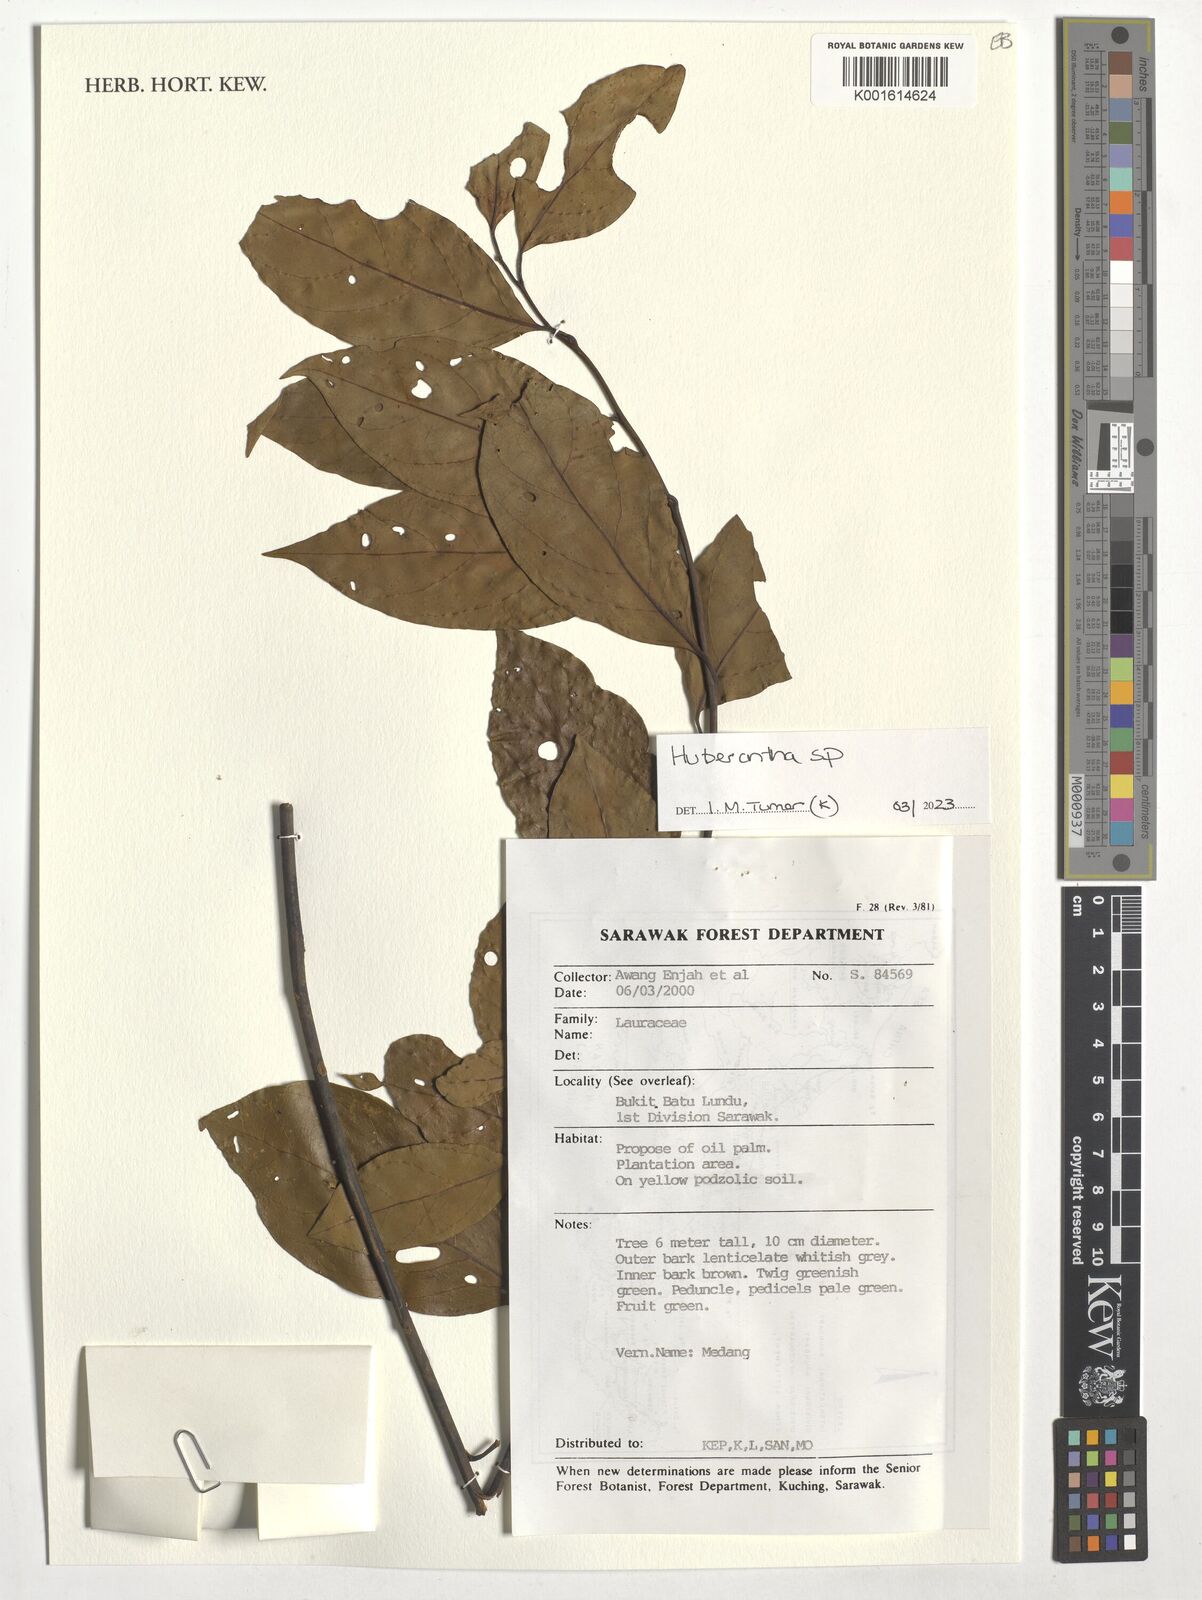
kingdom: Plantae
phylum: Tracheophyta
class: Magnoliopsida
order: Magnoliales
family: Annonaceae
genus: Huberantha
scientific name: Huberantha
